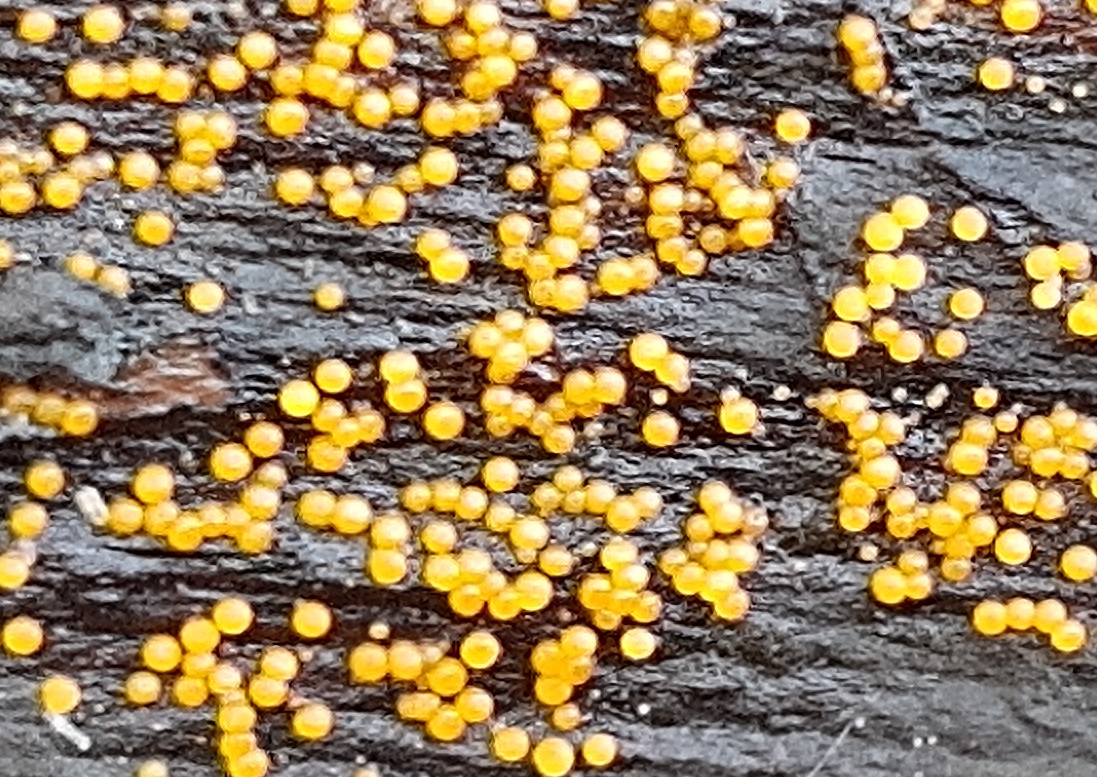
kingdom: Fungi
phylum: Ascomycota
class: Sordariomycetes
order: Hypocreales
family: Nectriaceae
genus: Hydropisphaera
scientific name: Hydropisphaera peziza
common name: skålformet gyldenkerne
